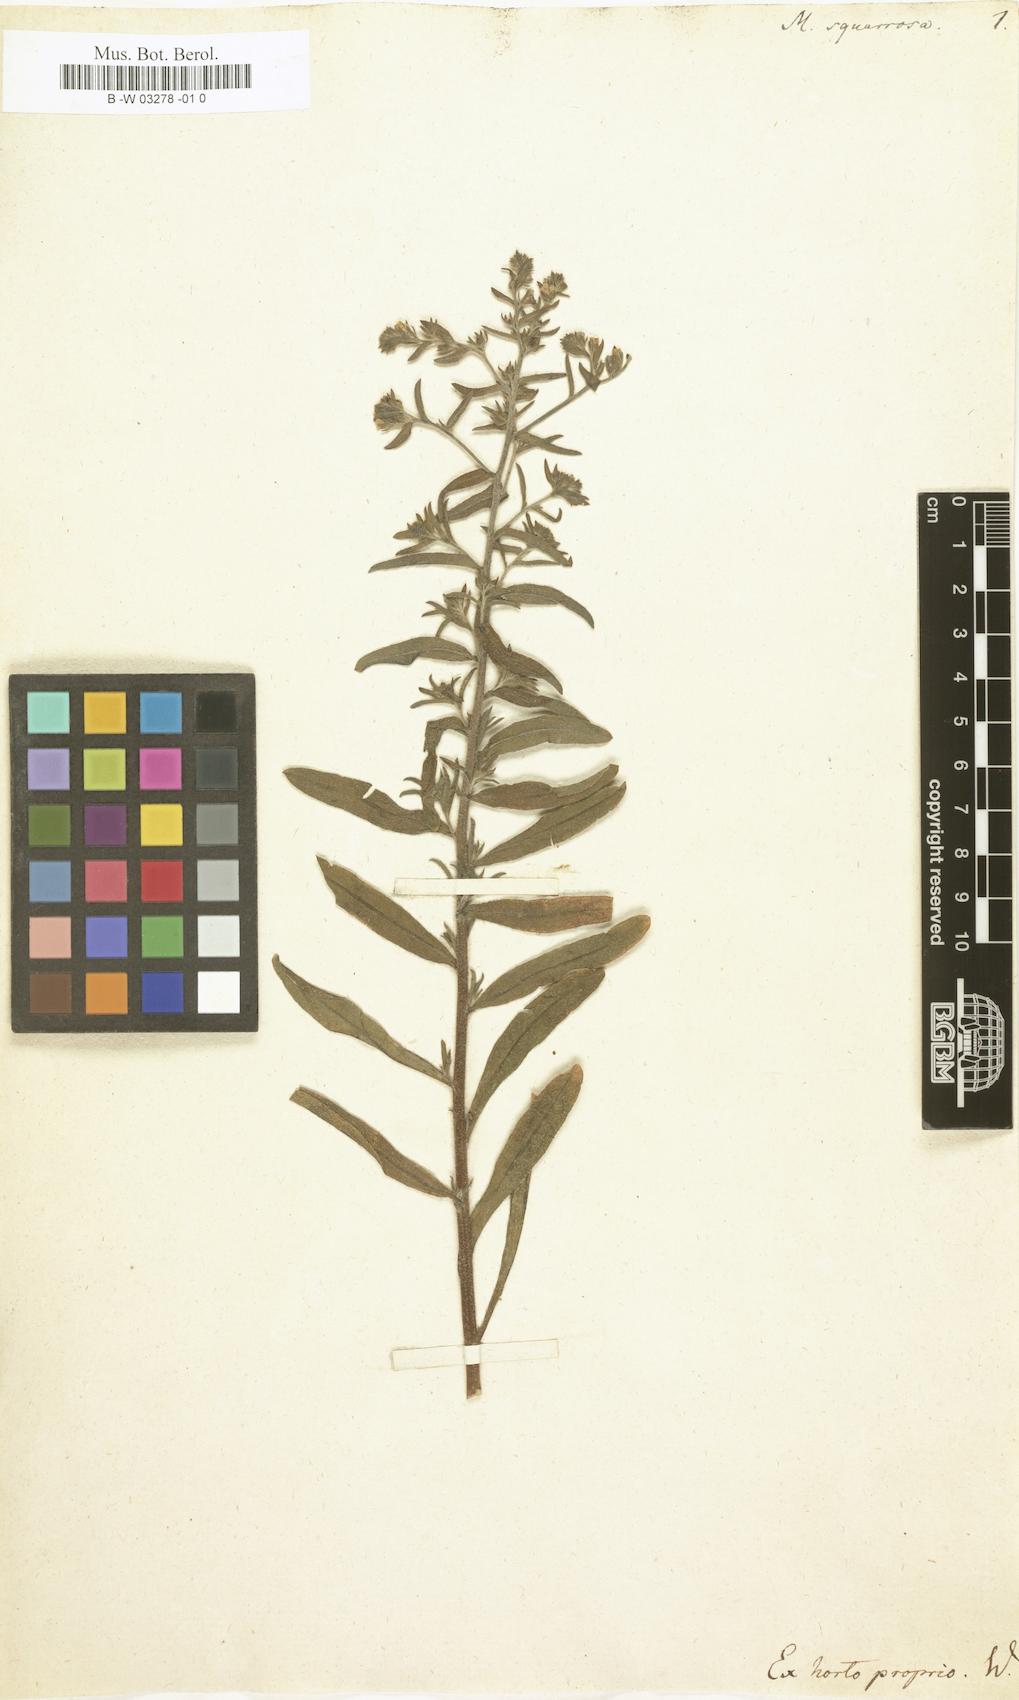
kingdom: Plantae
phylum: Tracheophyta
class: Magnoliopsida
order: Boraginales
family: Boraginaceae
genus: Lappula
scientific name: Lappula squarrosa
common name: European stickseed
